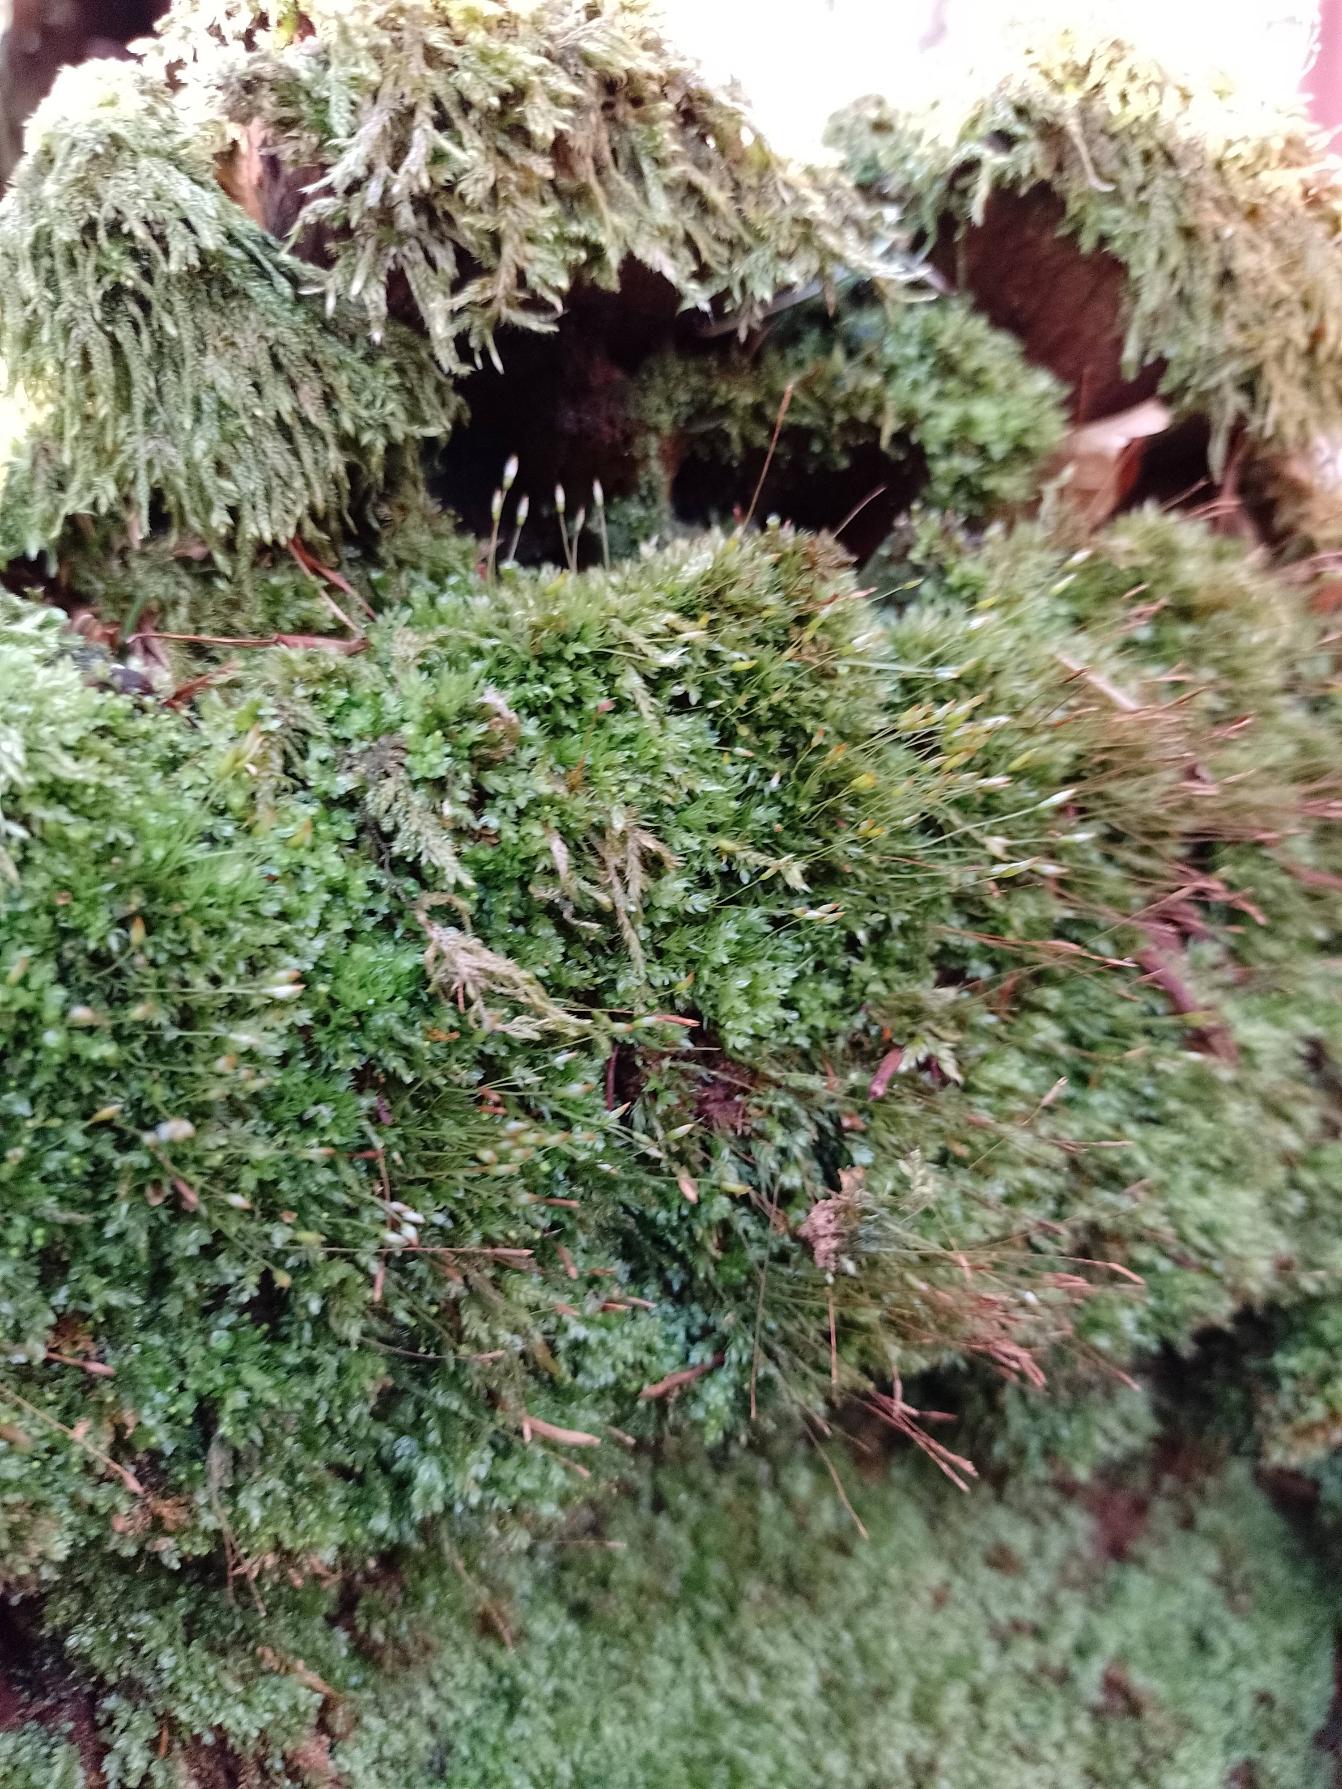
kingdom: Plantae
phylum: Bryophyta
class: Polytrichopsida
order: Tetraphidales
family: Tetraphidaceae
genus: Tetraphis
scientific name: Tetraphis pellucida
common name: Almindelig firtand
